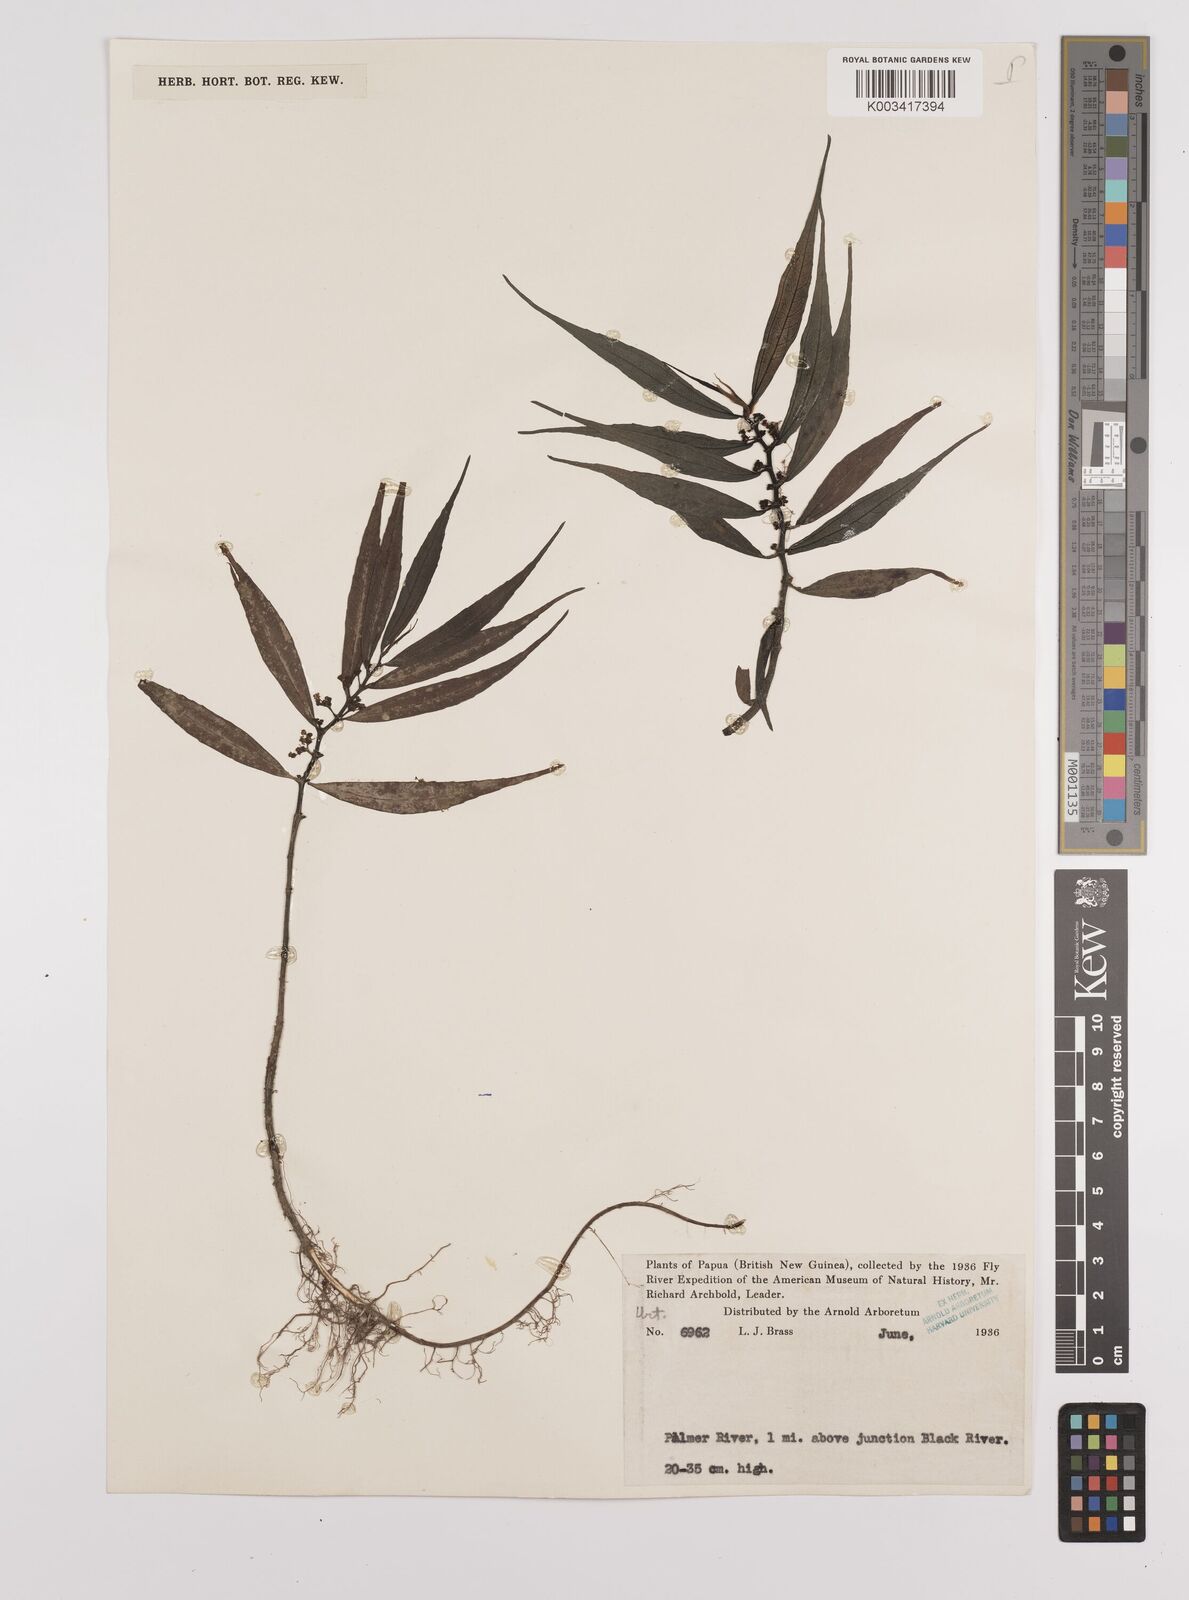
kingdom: Plantae
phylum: Tracheophyta
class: Magnoliopsida
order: Rosales
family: Urticaceae
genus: Procris
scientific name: Procris pedunculata
